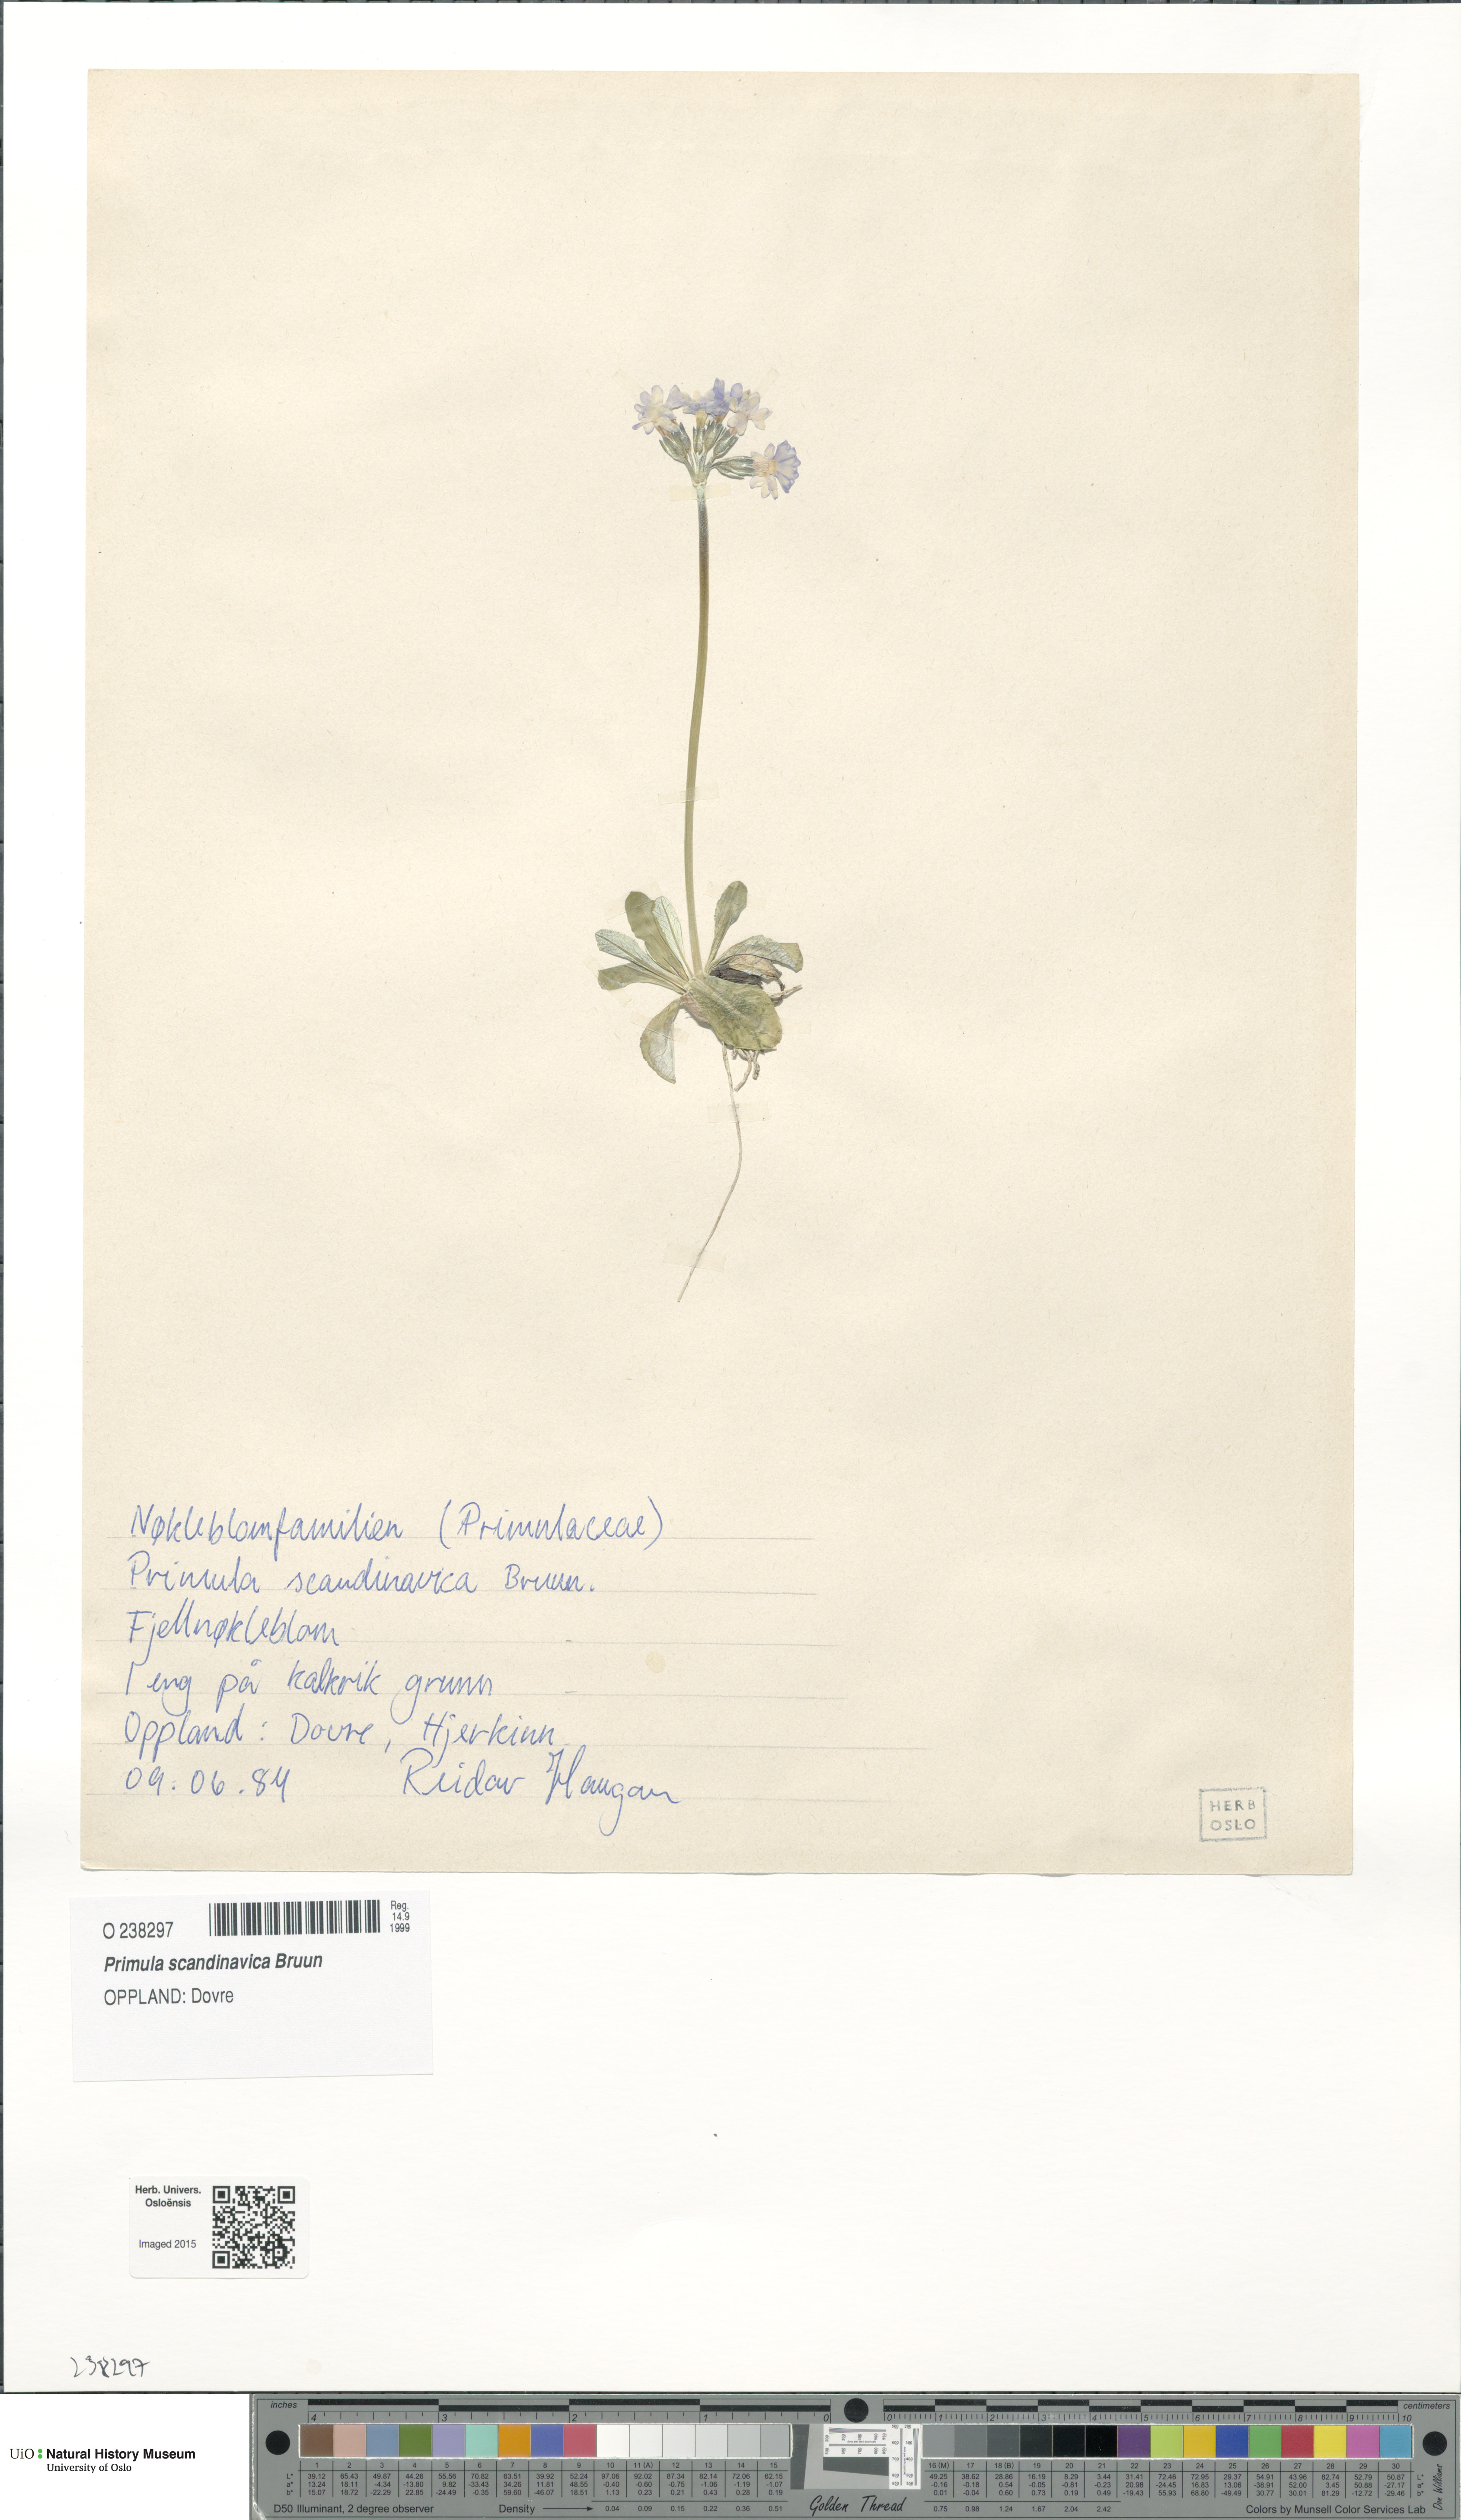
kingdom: Plantae
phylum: Tracheophyta
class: Magnoliopsida
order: Ericales
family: Primulaceae
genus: Primula
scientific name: Primula scandinavica
